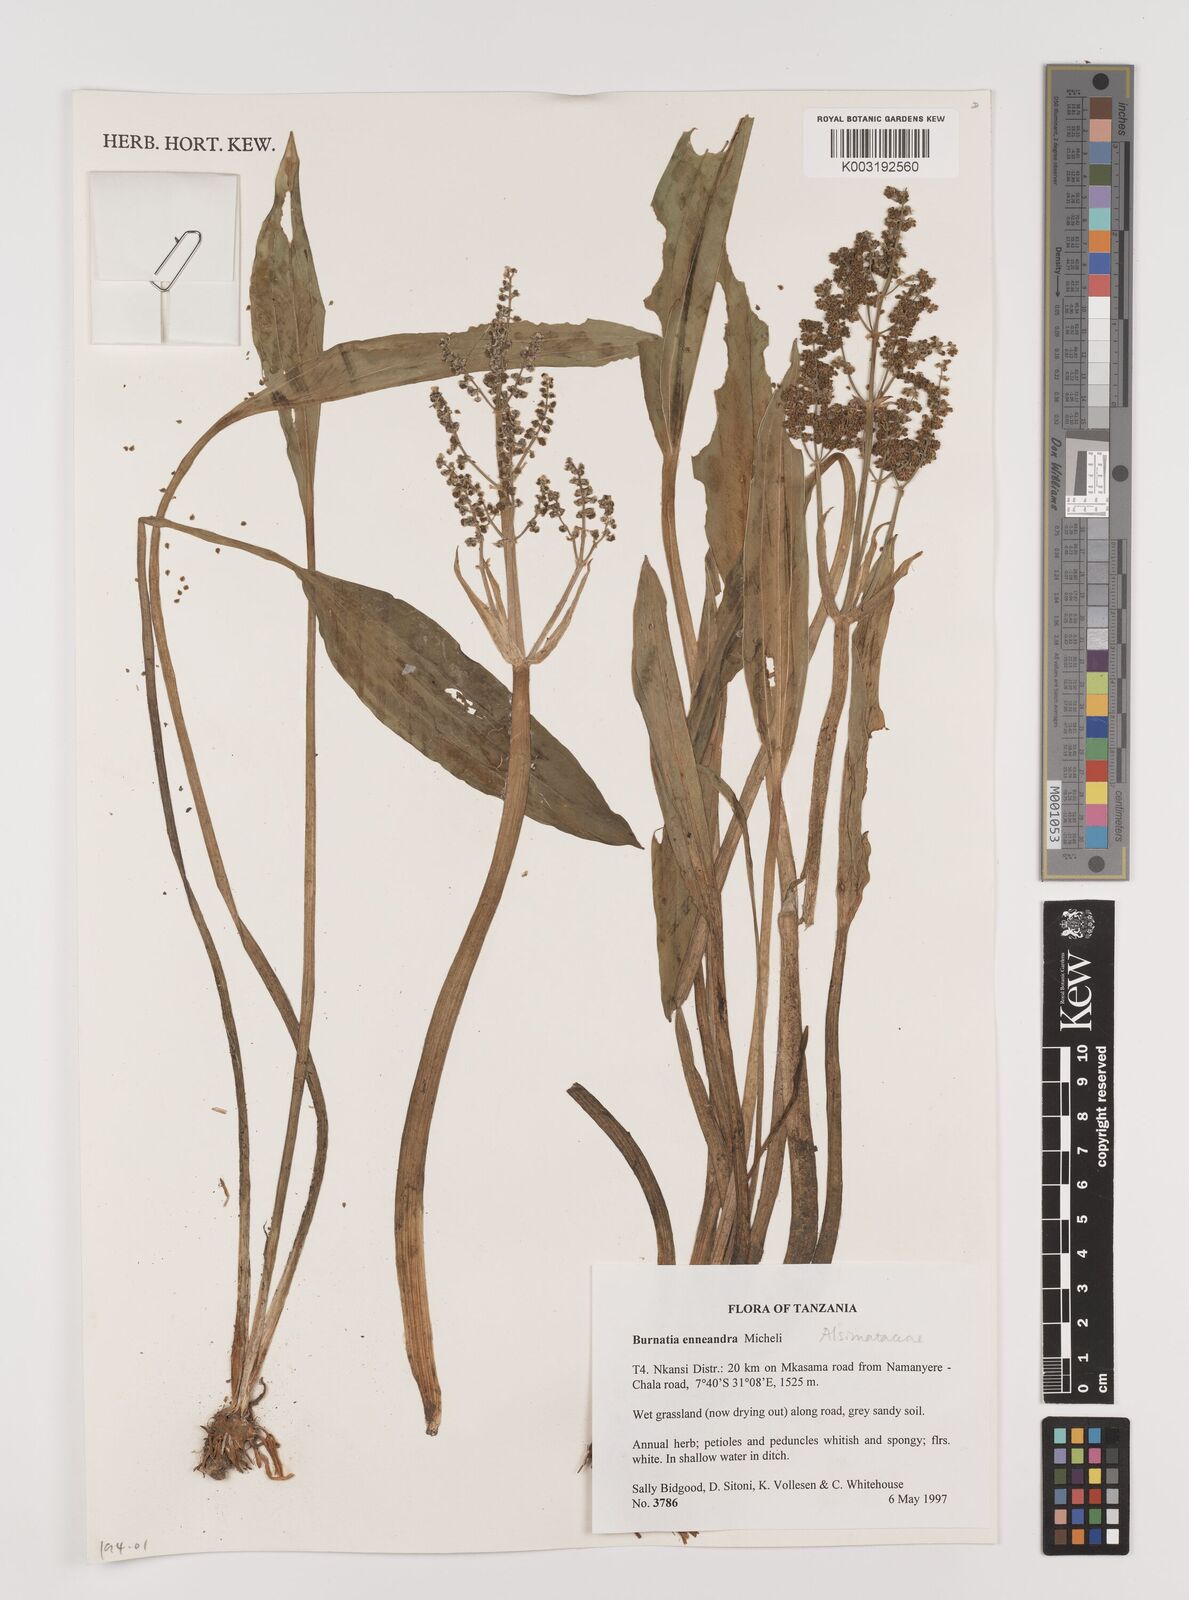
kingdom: Plantae
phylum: Tracheophyta
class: Liliopsida
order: Alismatales
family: Alismataceae
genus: Burnatia
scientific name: Burnatia enneandra
